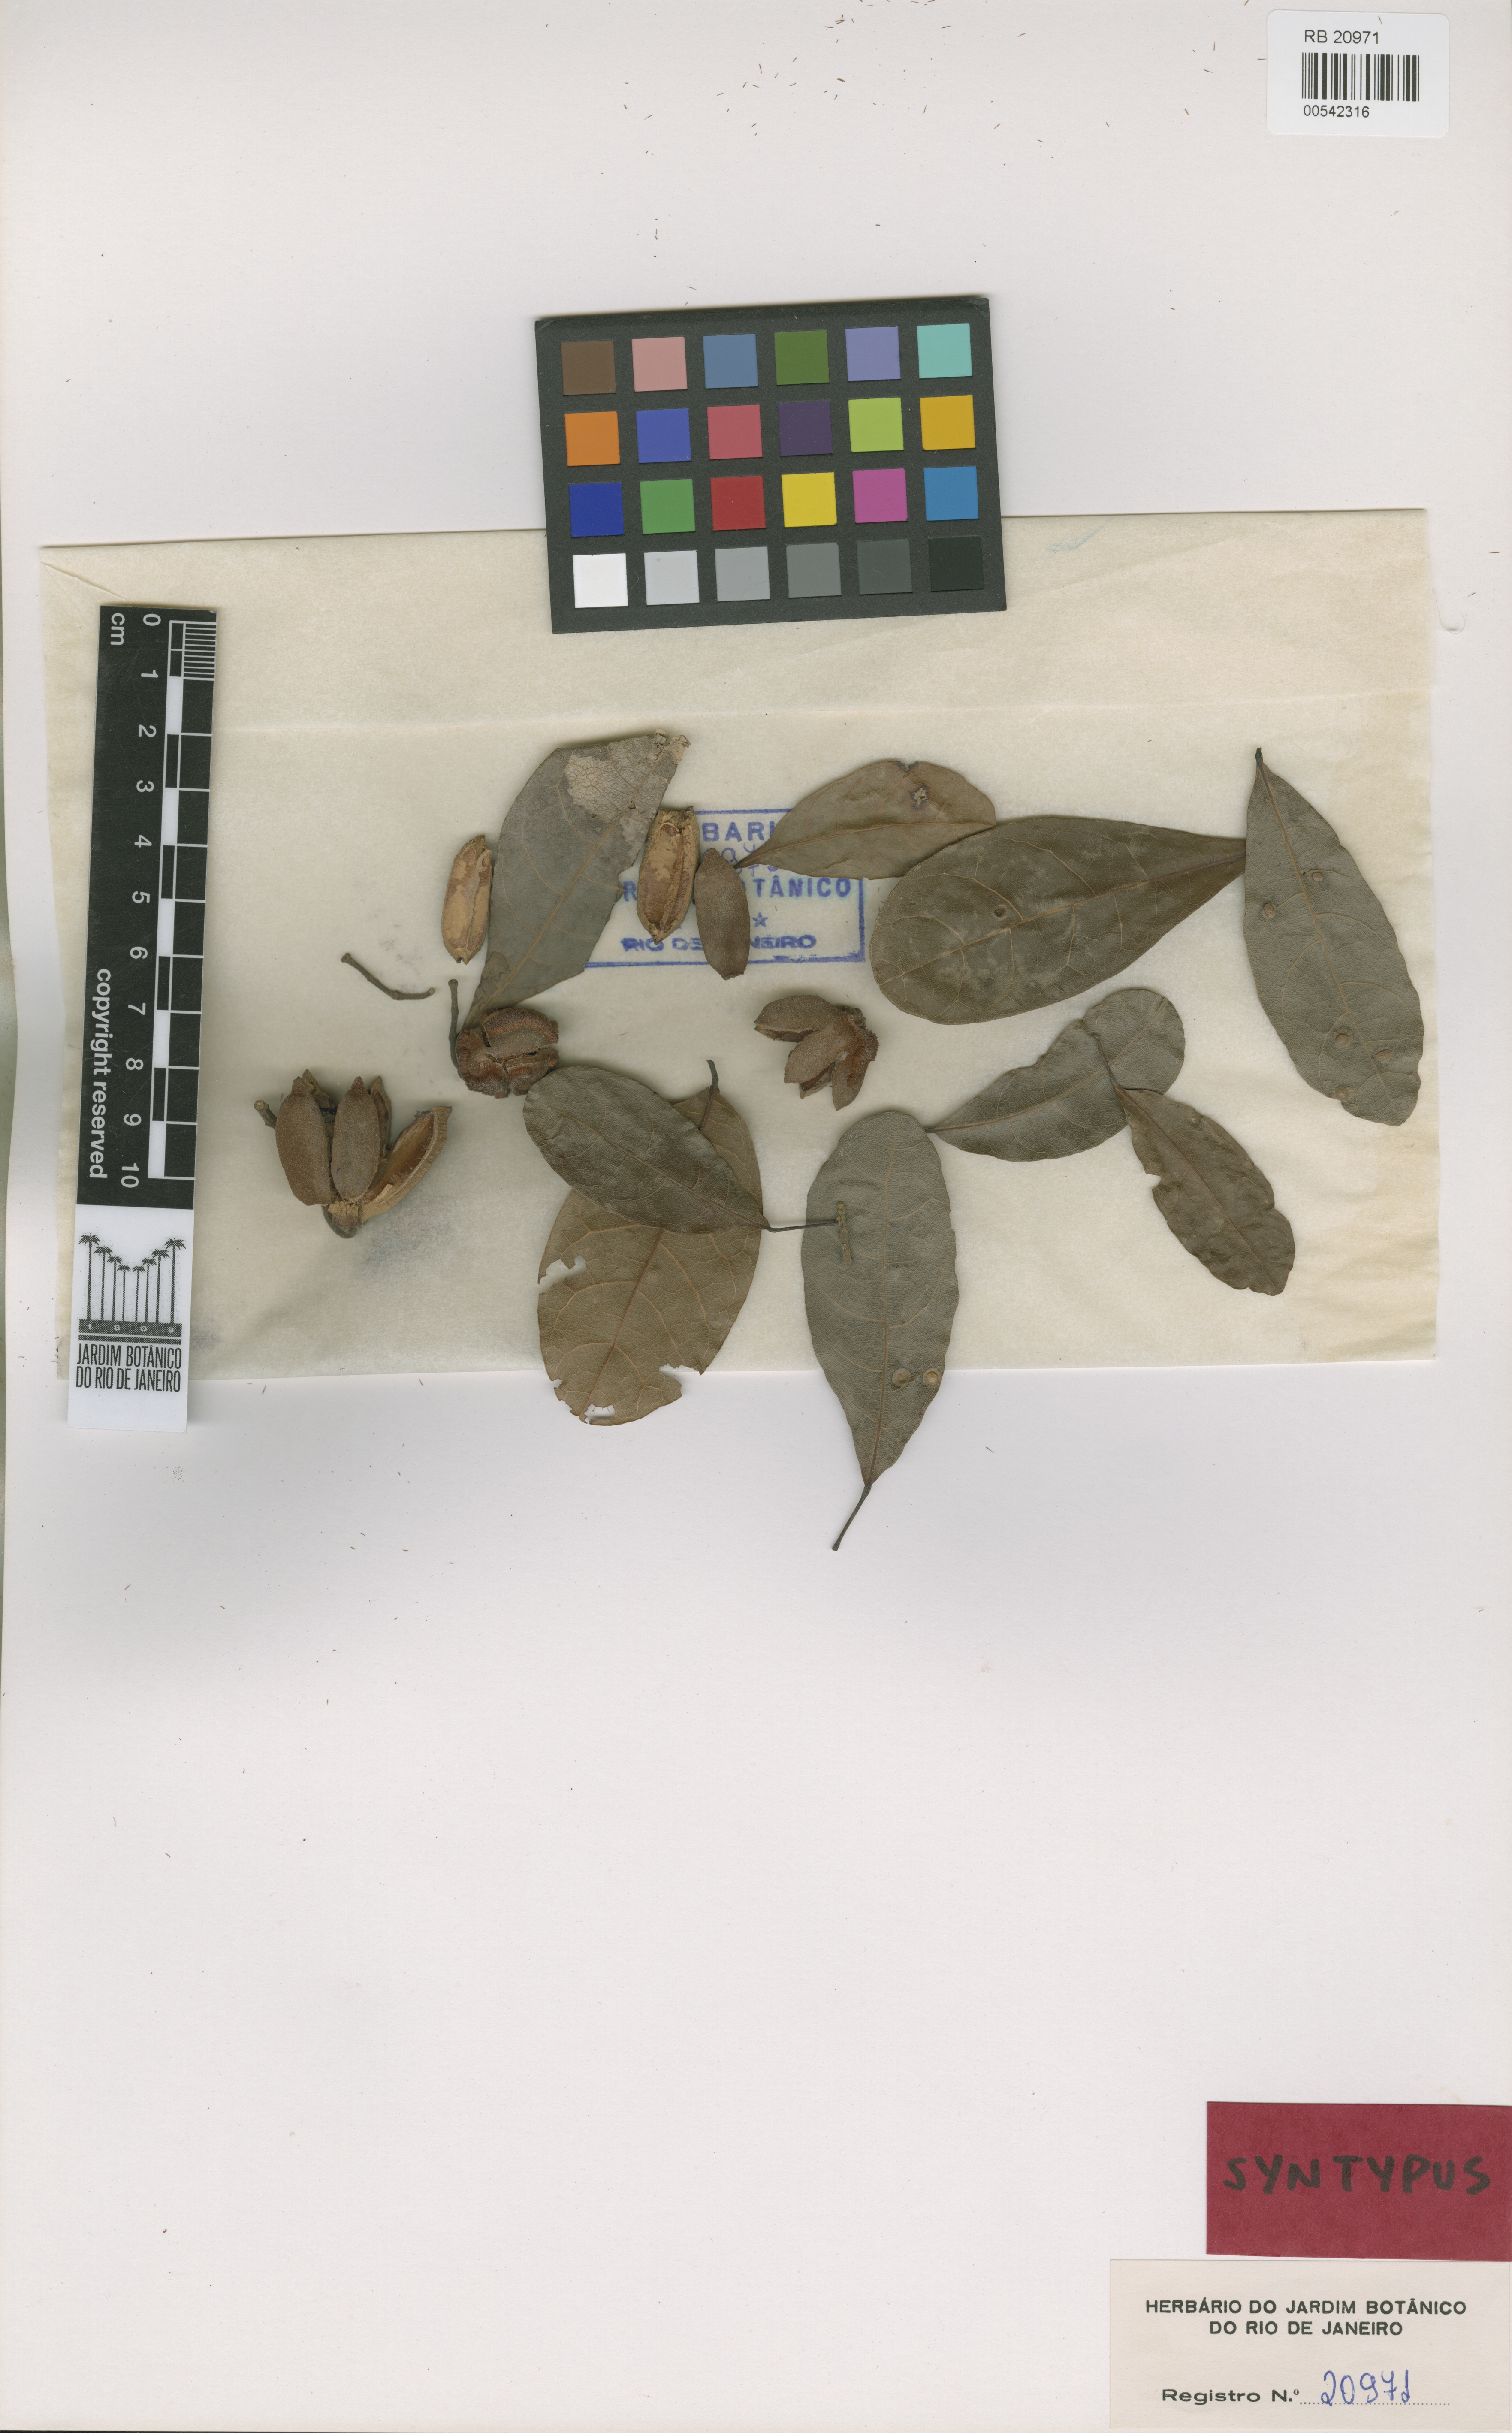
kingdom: Plantae
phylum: Tracheophyta
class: Magnoliopsida
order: Oxalidales
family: Elaeocarpaceae
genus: Sloanea
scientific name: Sloanea terniflora
